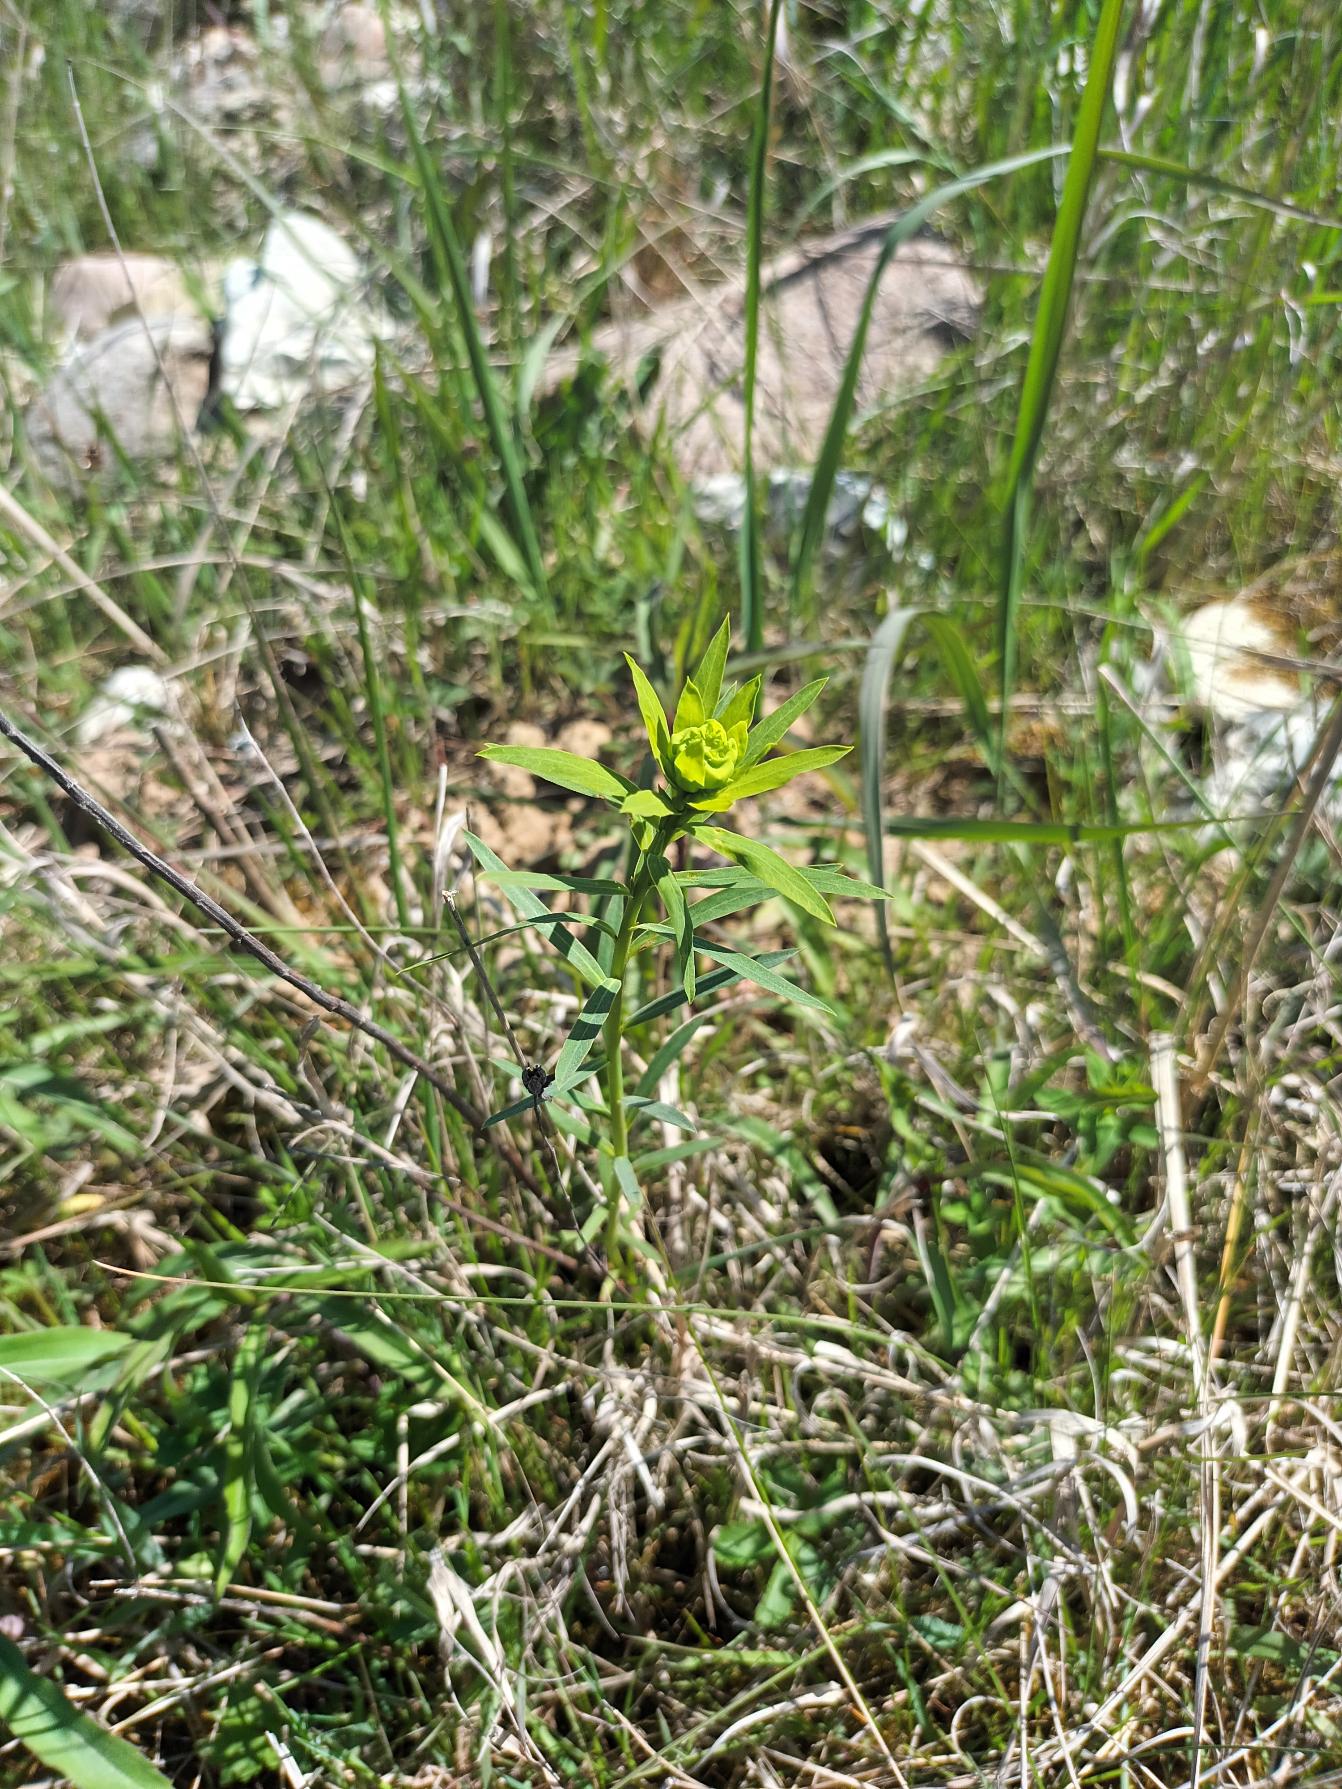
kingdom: Plantae
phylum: Tracheophyta
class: Magnoliopsida
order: Malpighiales
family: Euphorbiaceae
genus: Euphorbia
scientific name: Euphorbia esula
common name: Langbladet vortemælk
